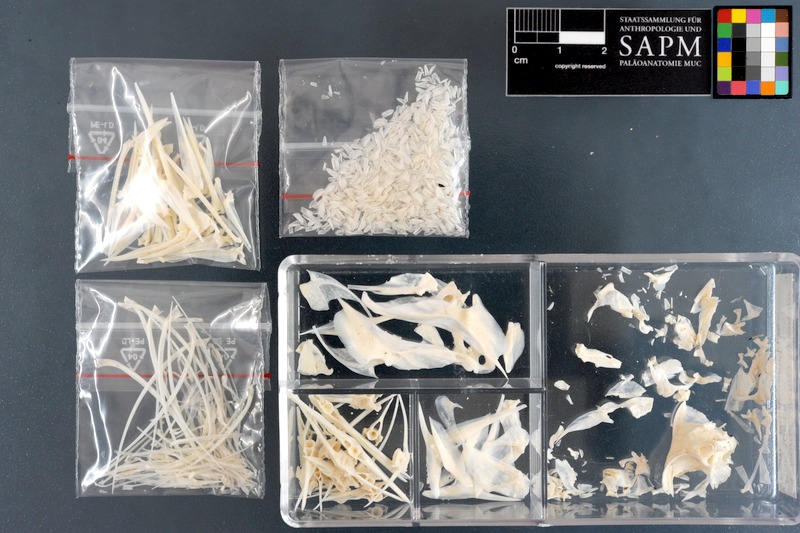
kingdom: Animalia
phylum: Chordata
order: Perciformes
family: Pomacanthidae
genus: Pomacanthus
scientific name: Pomacanthus imperator
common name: Emperor angelfish
